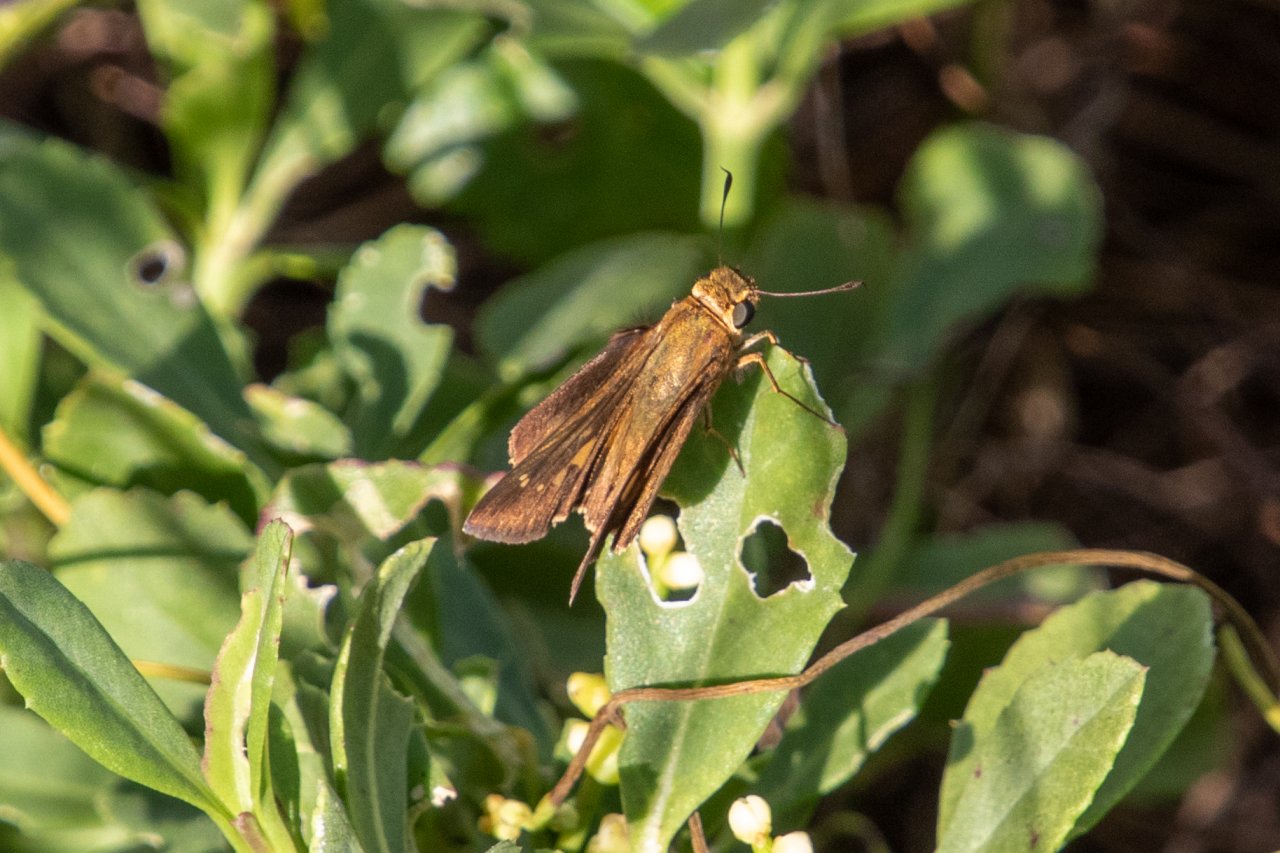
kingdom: Animalia
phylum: Arthropoda
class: Insecta
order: Lepidoptera
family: Hesperiidae
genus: Panoquina
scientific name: Panoquina ocola
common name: Ocola Skipper
